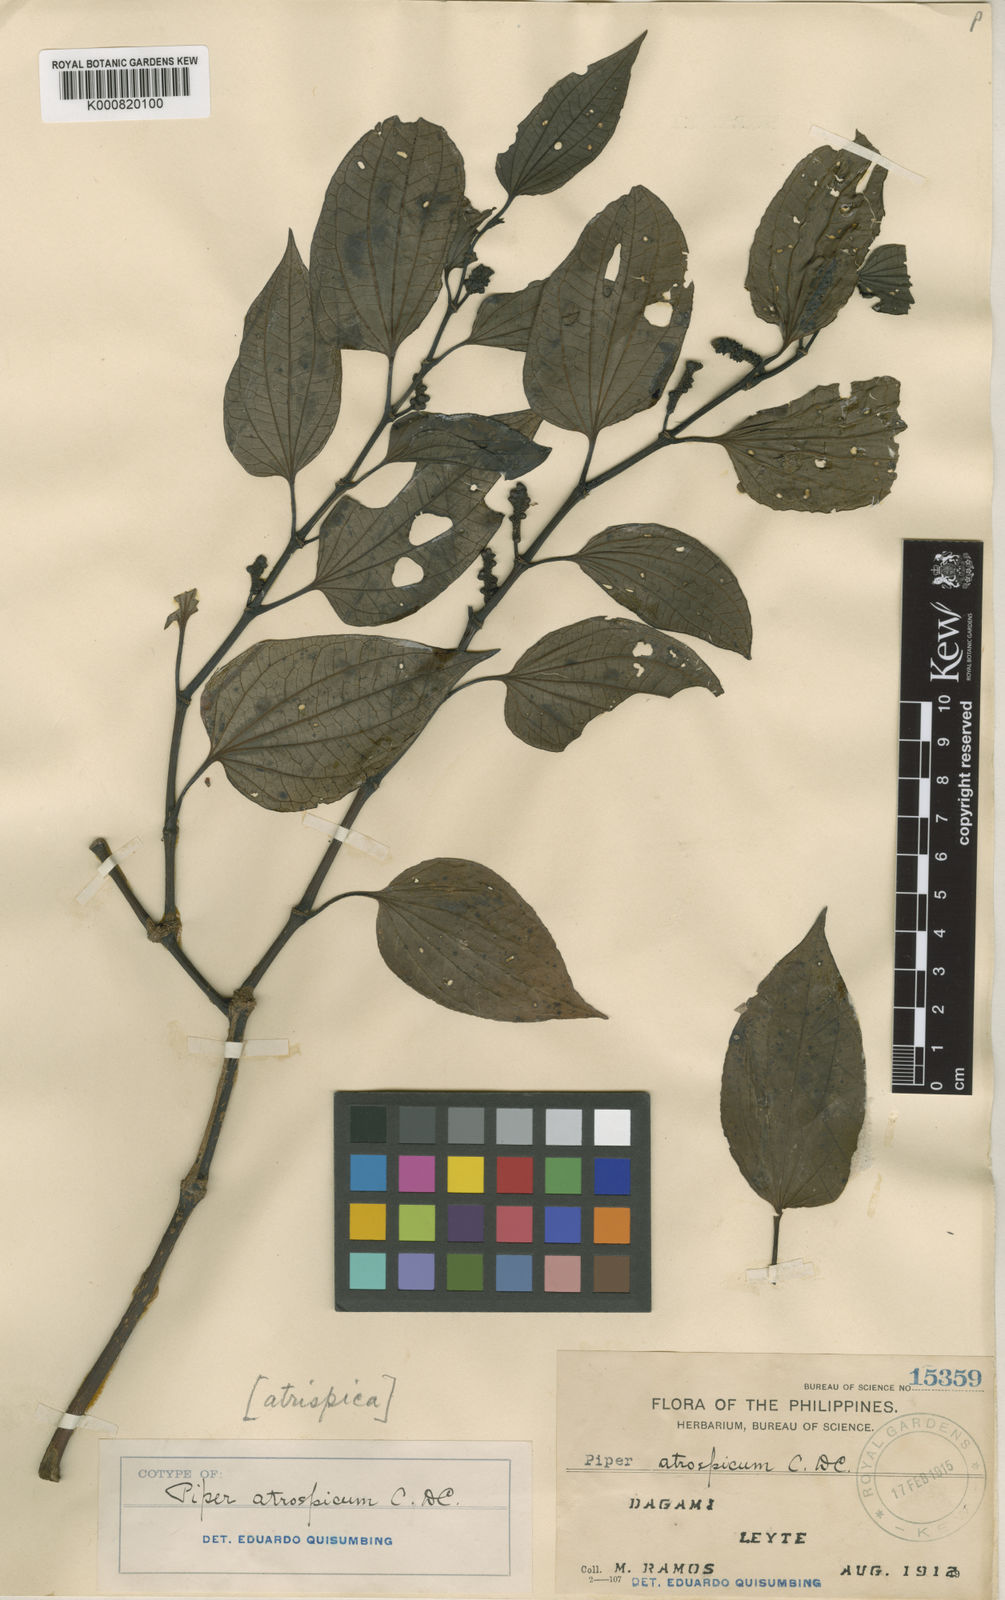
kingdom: Plantae
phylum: Tracheophyta
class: Magnoliopsida
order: Piperales
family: Piperaceae
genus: Piper
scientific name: Piper halconense
